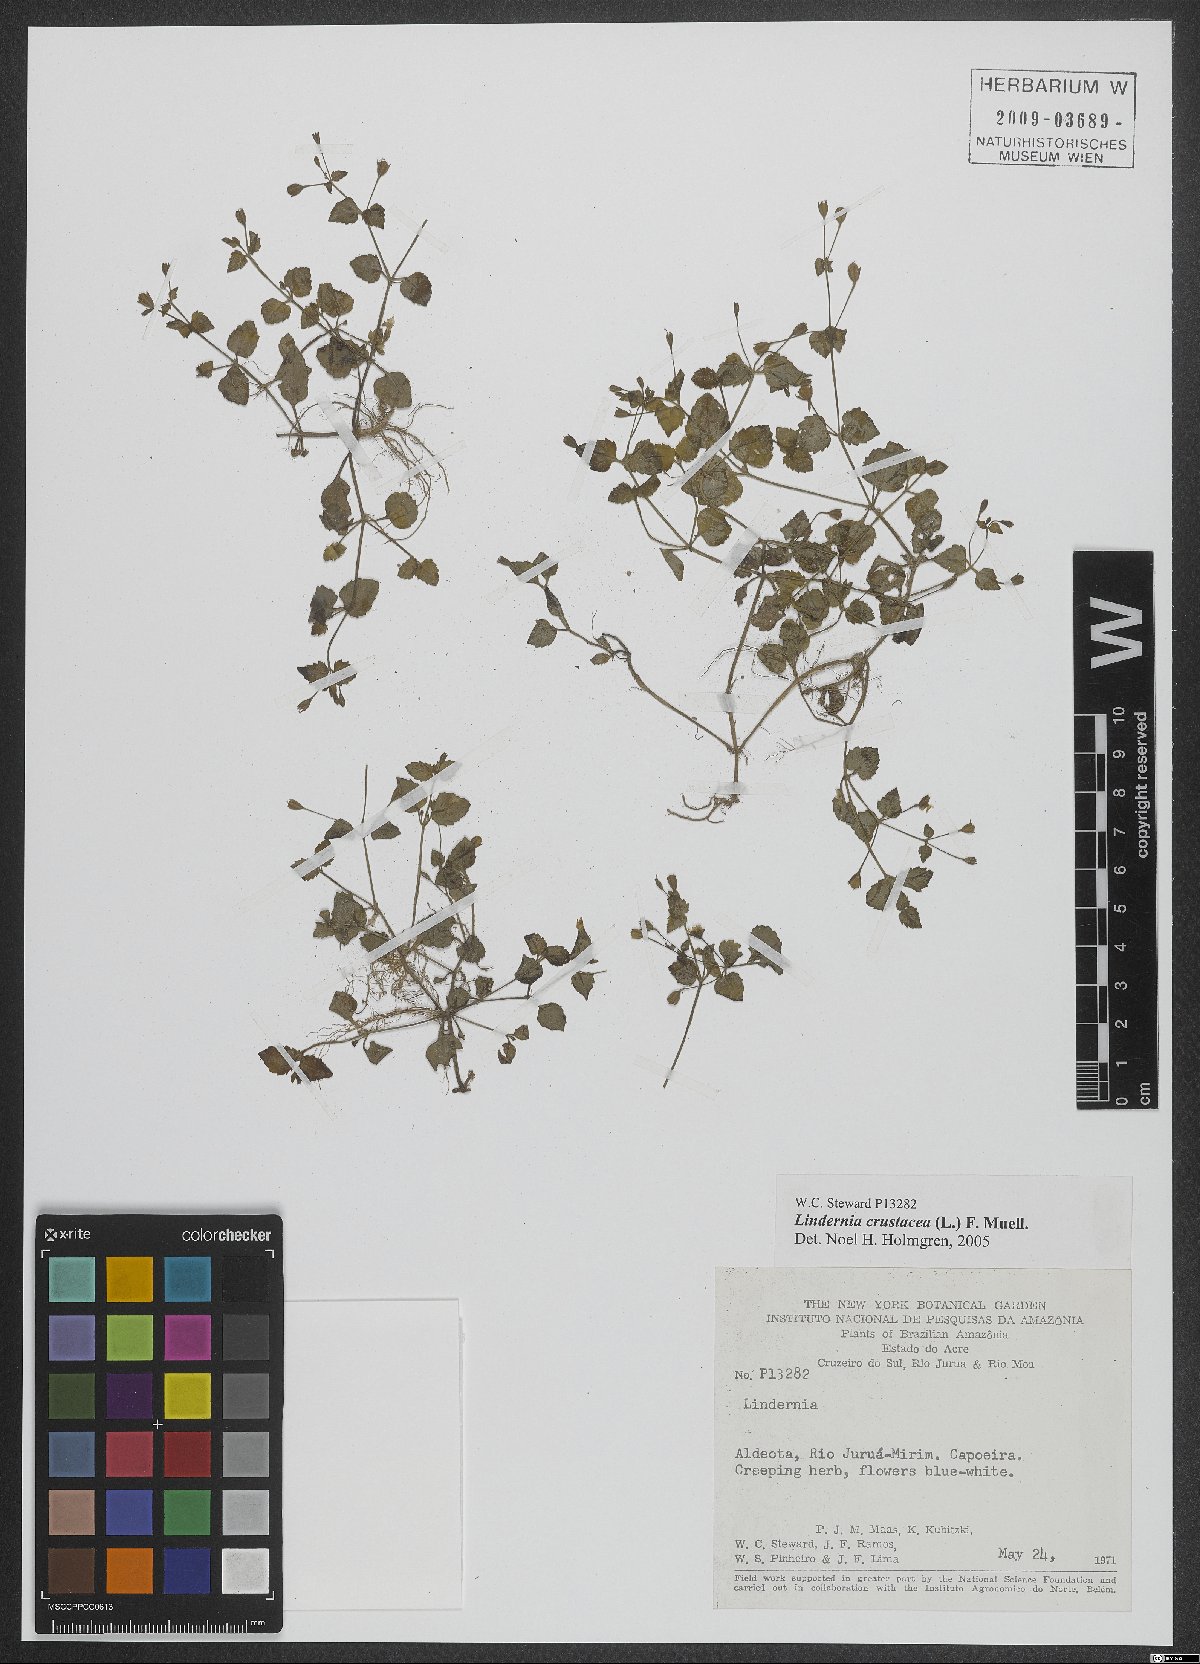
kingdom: Plantae
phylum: Tracheophyta
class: Magnoliopsida
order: Lamiales
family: Linderniaceae
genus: Torenia
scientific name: Torenia crustacea
